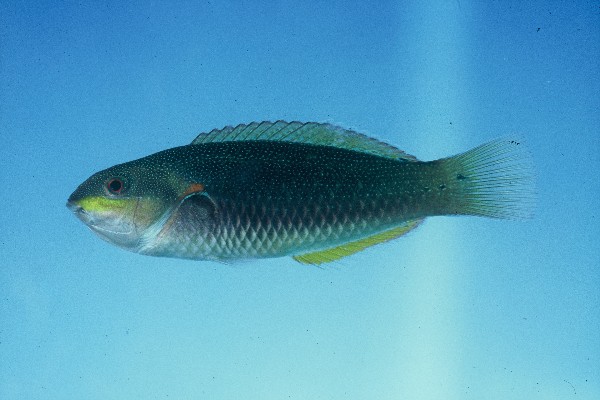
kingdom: Animalia
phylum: Chordata
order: Perciformes
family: Labridae
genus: Stethojulis
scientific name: Stethojulis albovittata
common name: Bluelined wrasse
